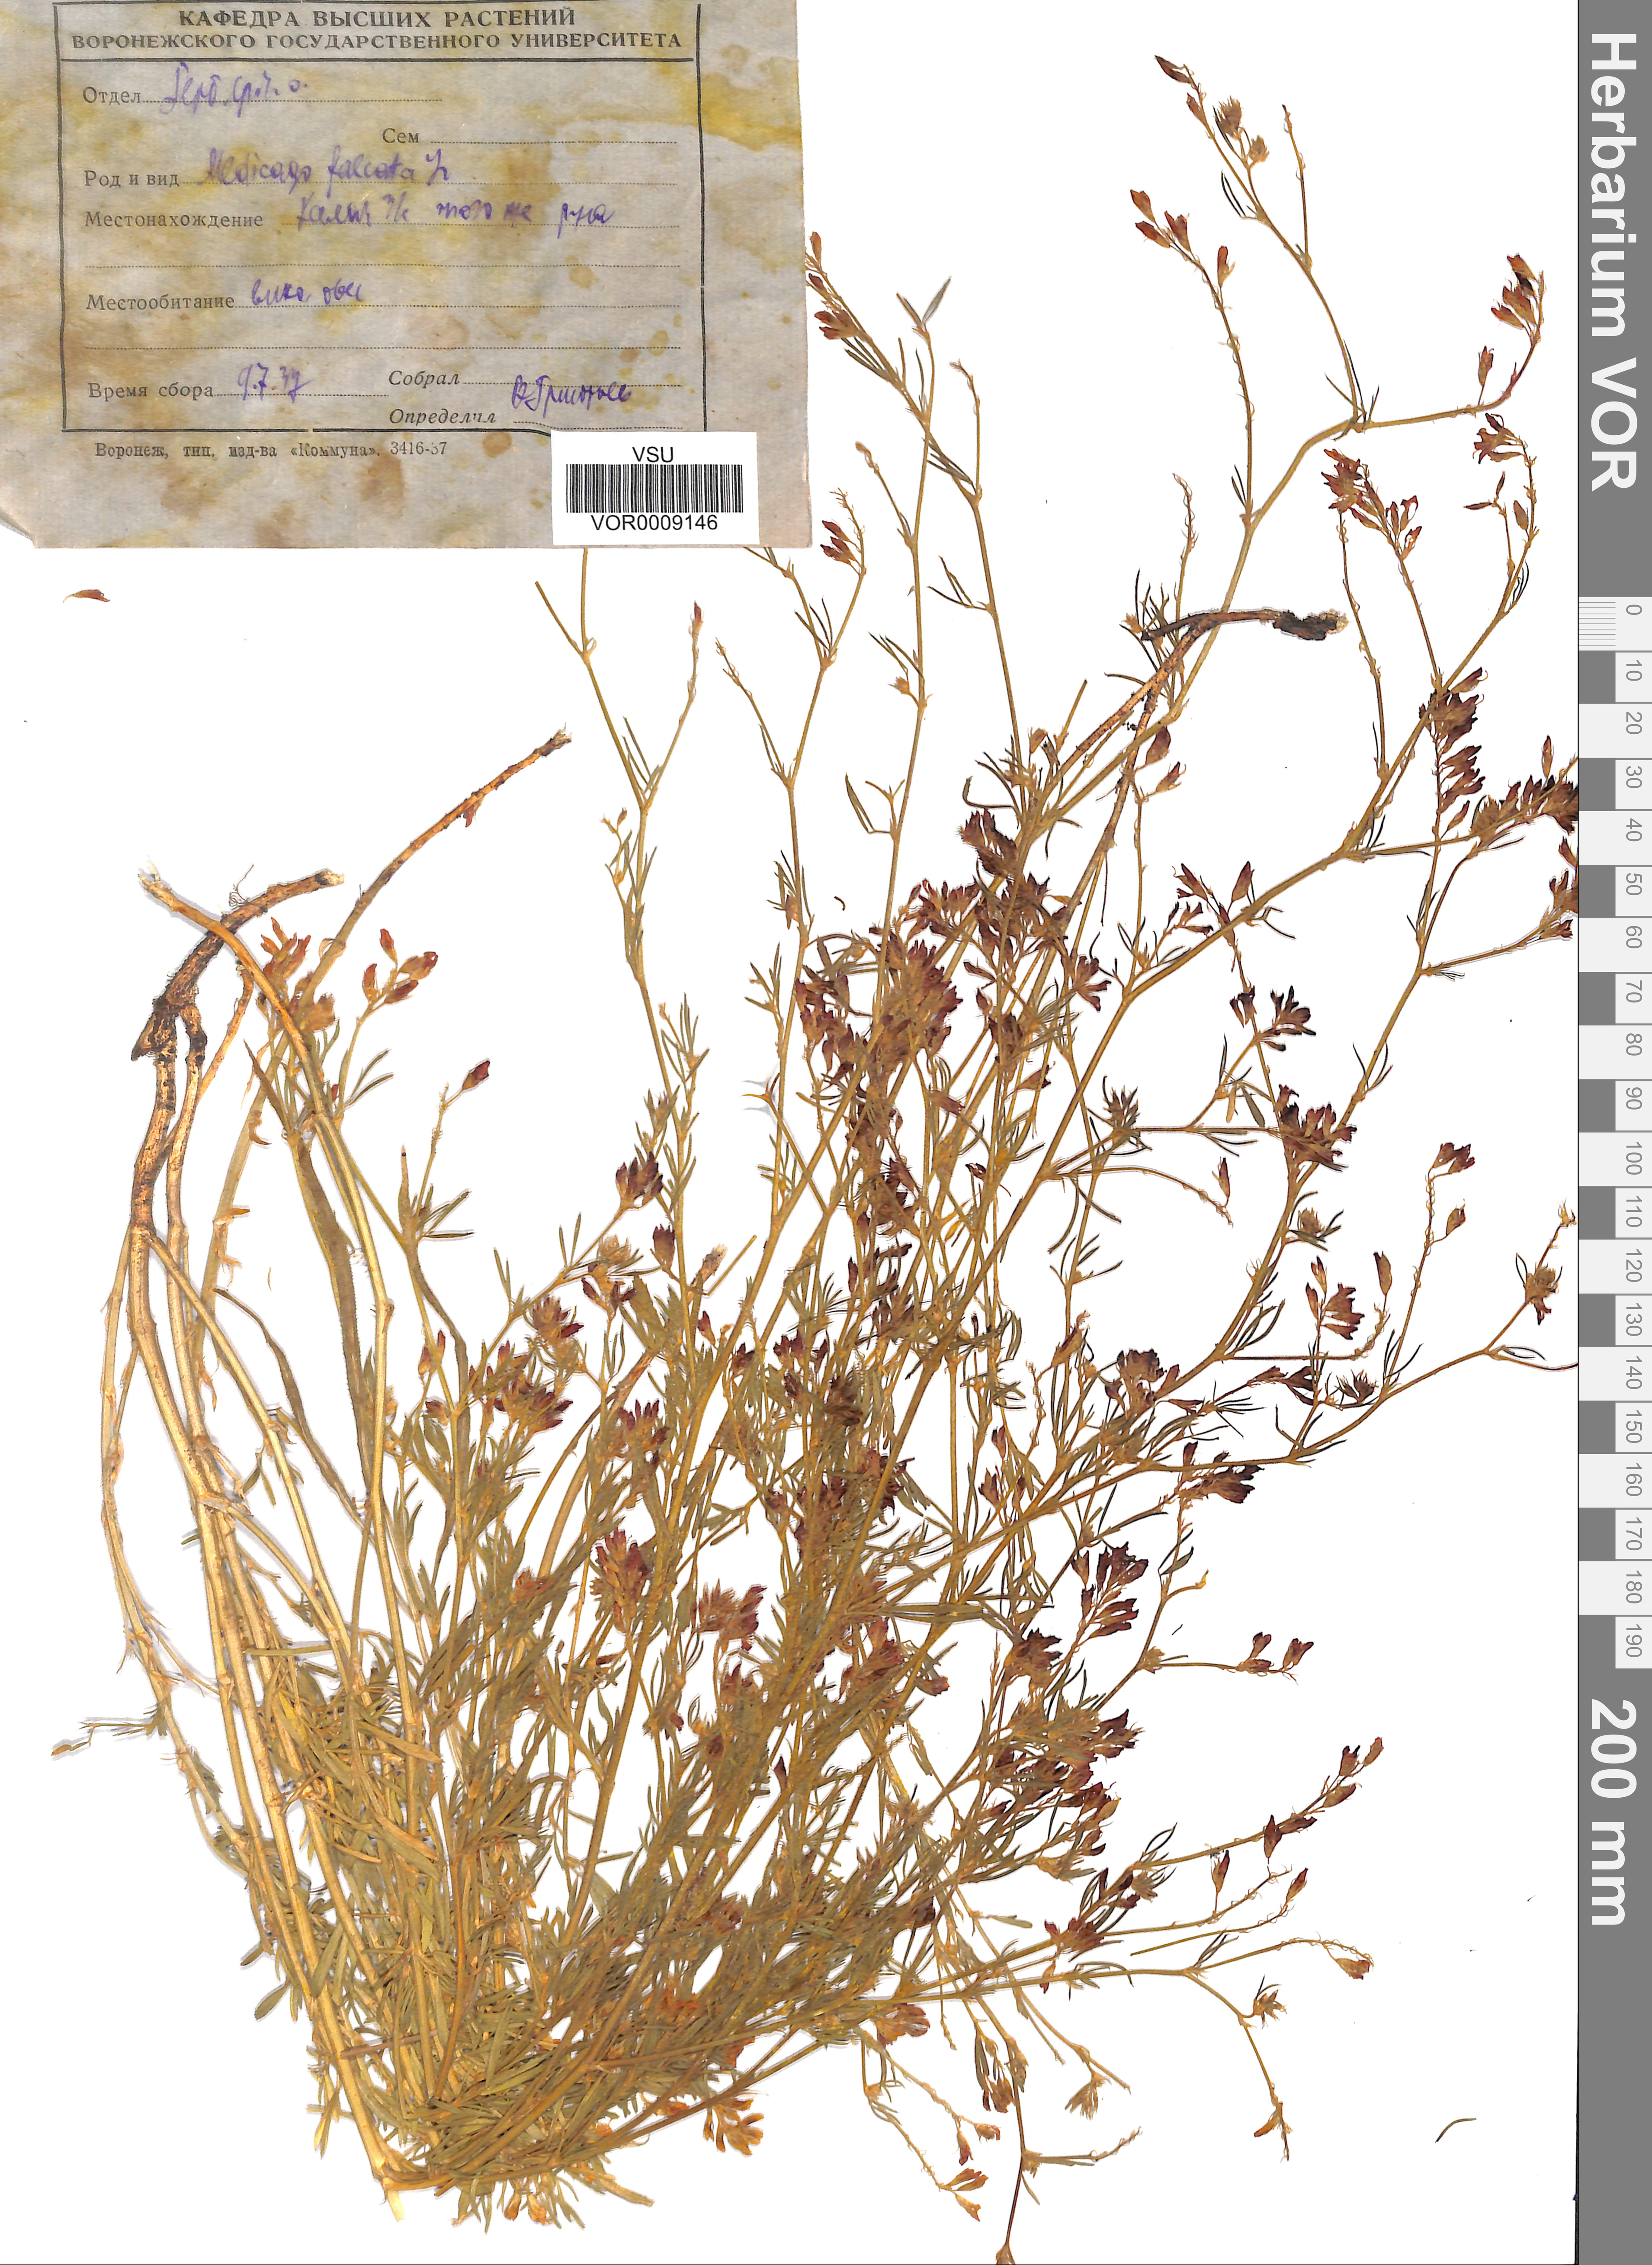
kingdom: Plantae
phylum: Tracheophyta
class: Magnoliopsida
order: Fabales
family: Fabaceae
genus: Medicago
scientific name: Medicago falcata
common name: Sickle medick
